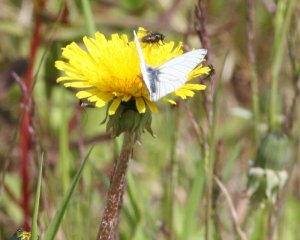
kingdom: Animalia
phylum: Arthropoda
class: Insecta
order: Lepidoptera
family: Pieridae
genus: Pieris
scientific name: Pieris angelika
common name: Arctic White
